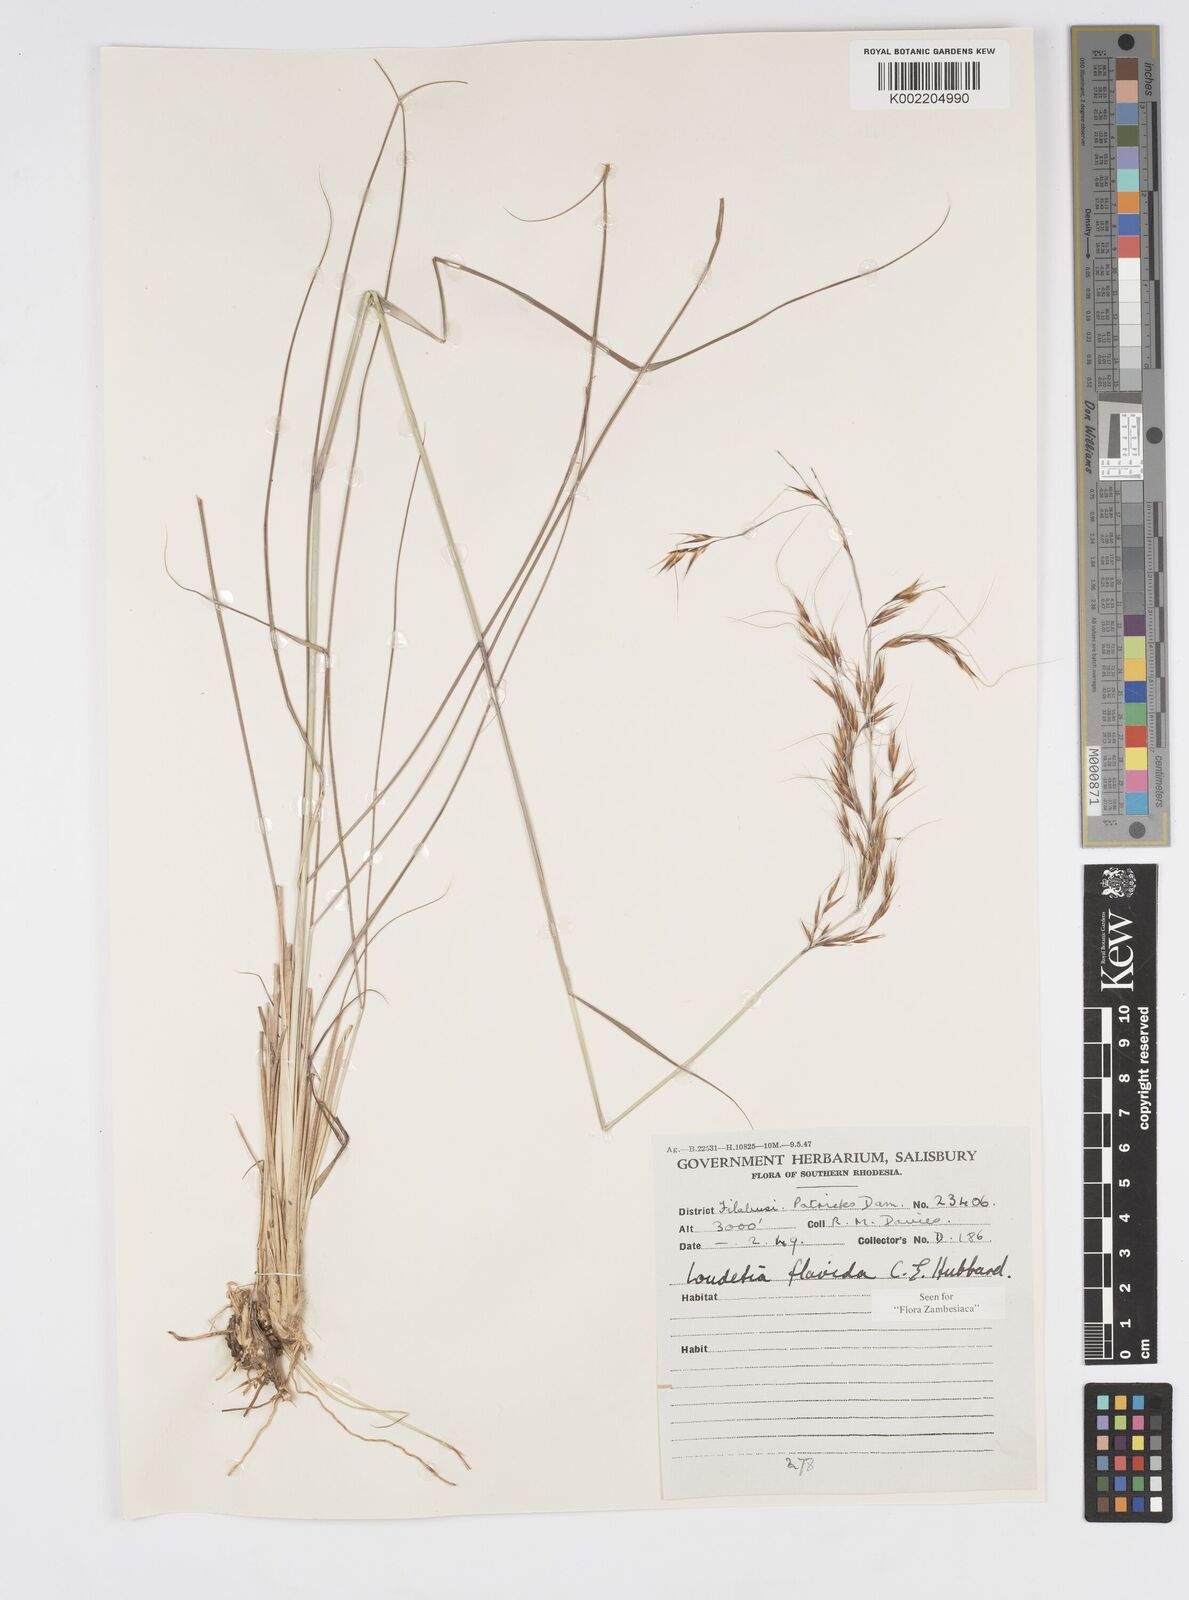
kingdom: Plantae
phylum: Tracheophyta
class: Liliopsida
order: Poales
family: Poaceae
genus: Loudetia
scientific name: Loudetia flavida
